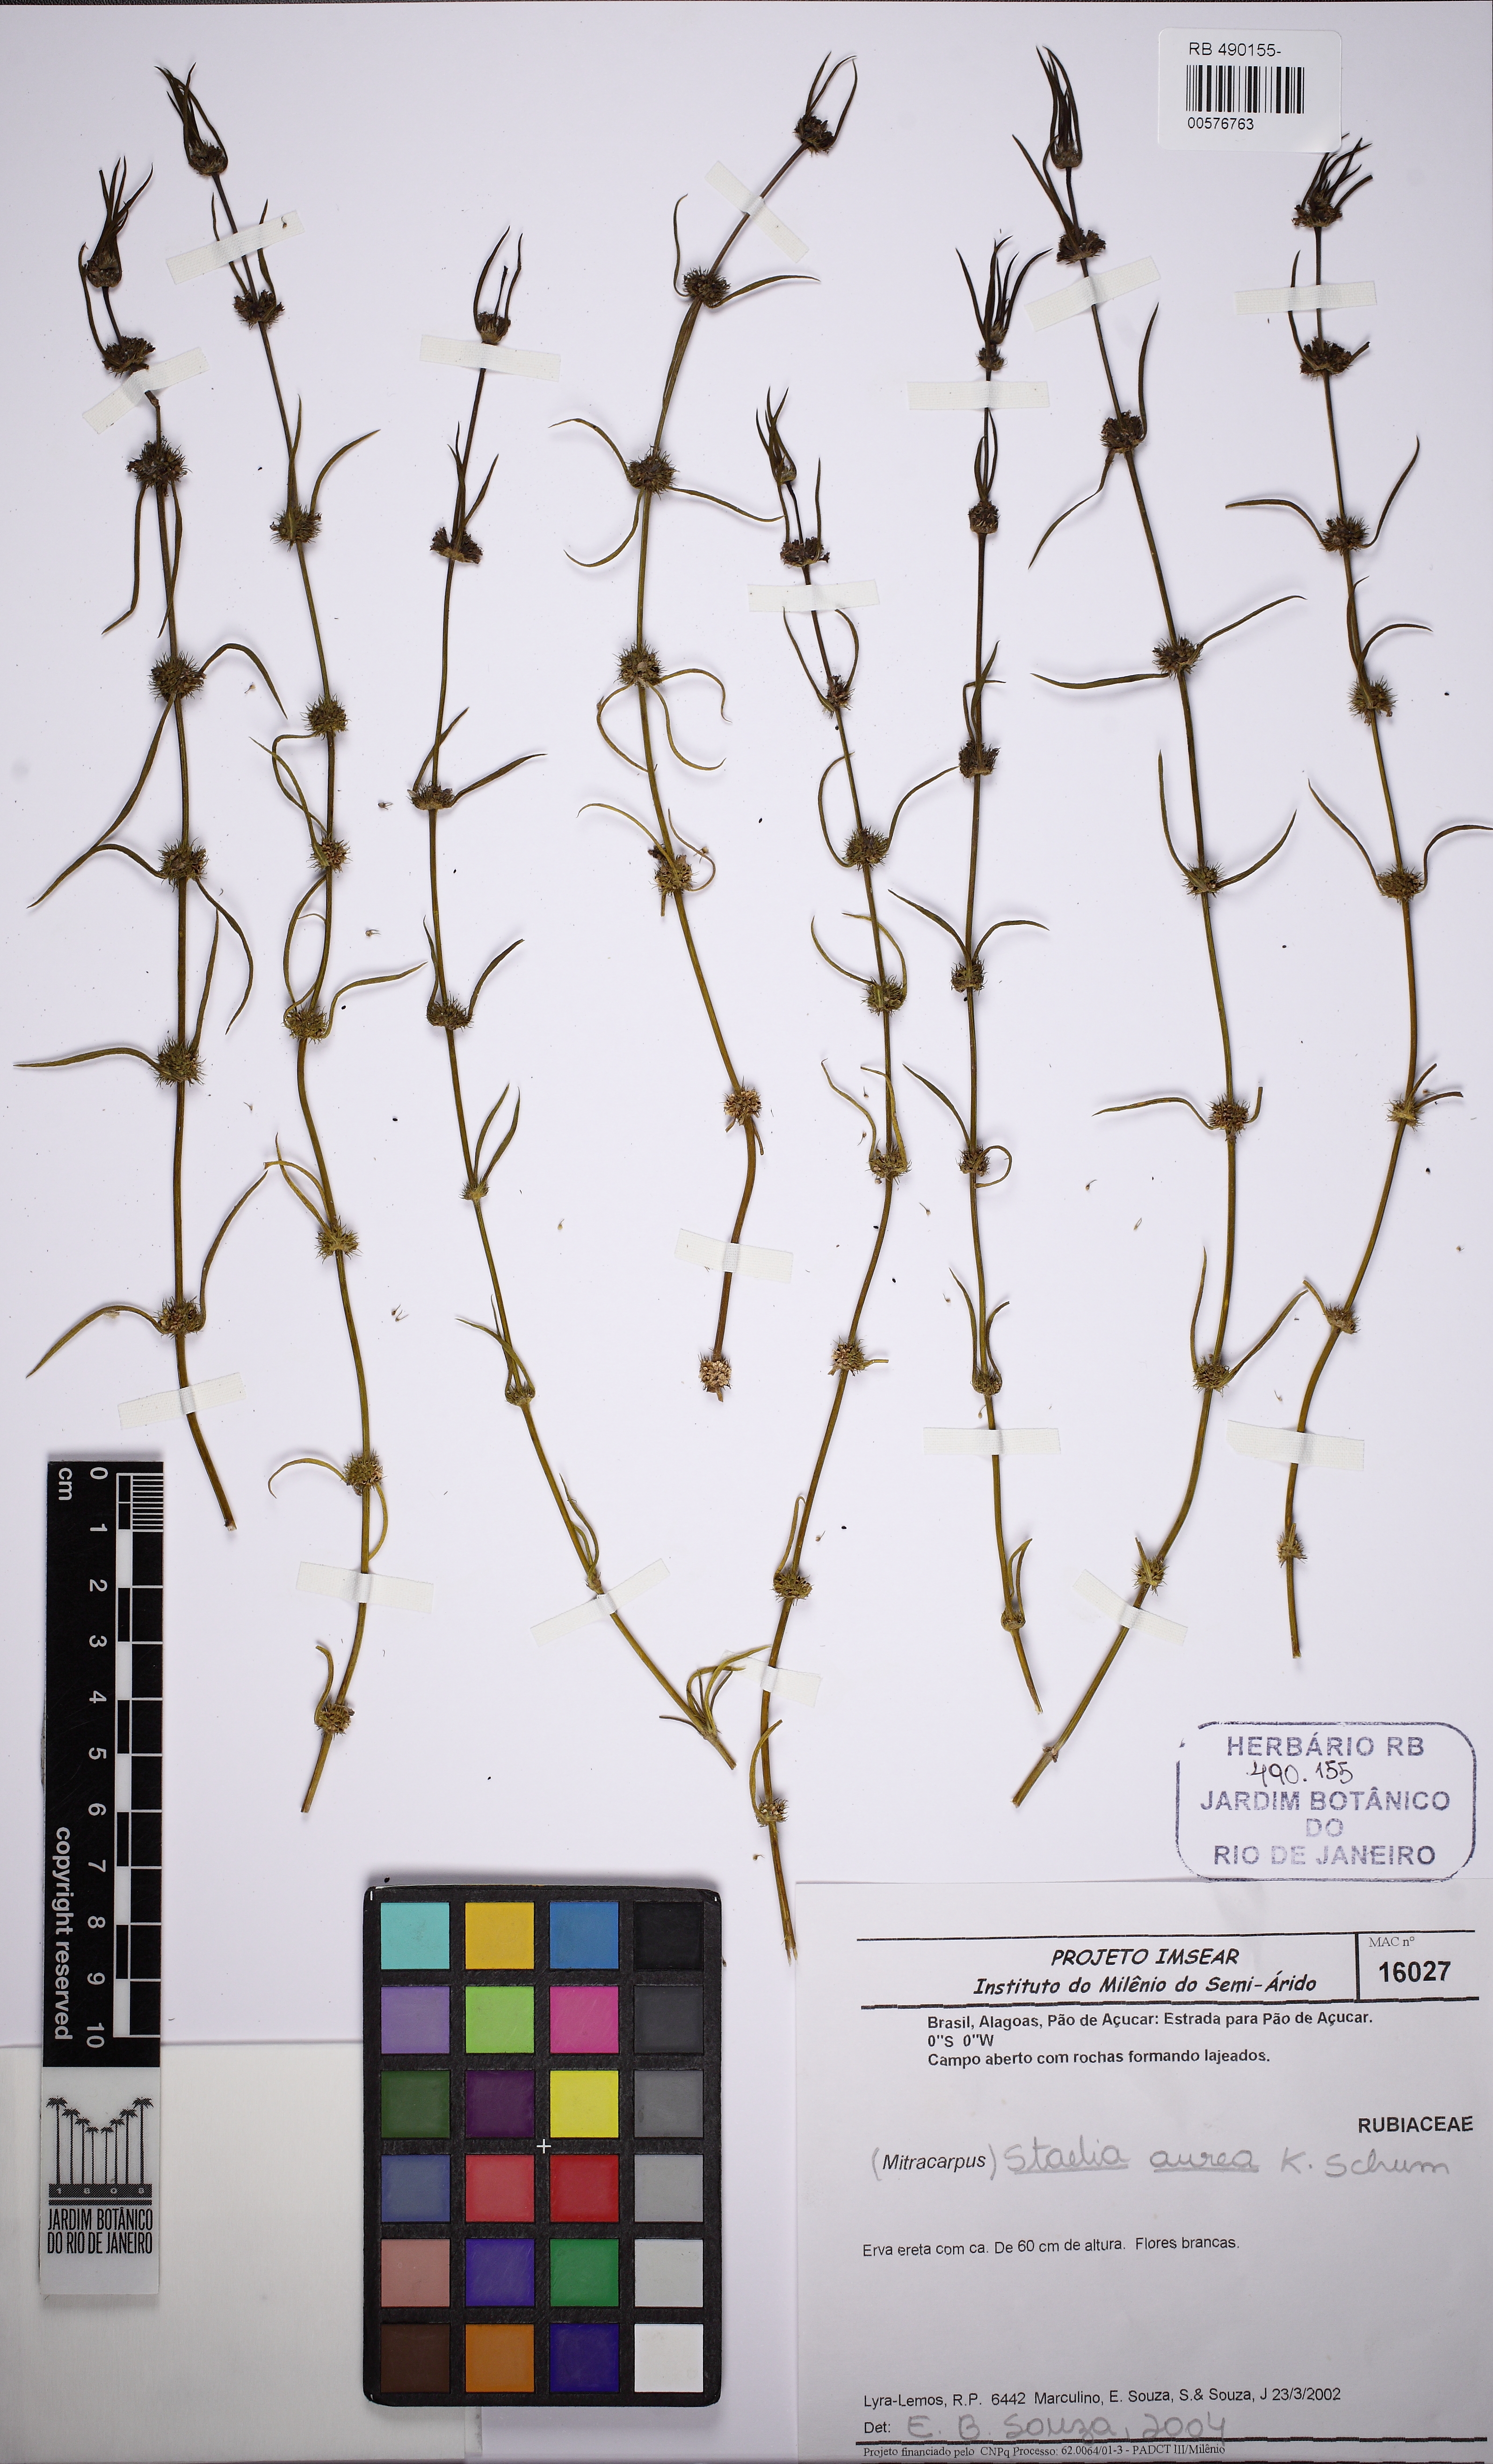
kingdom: Plantae
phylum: Tracheophyta
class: Magnoliopsida
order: Gentianales
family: Rubiaceae
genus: Staelia
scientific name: Staelia aurea
